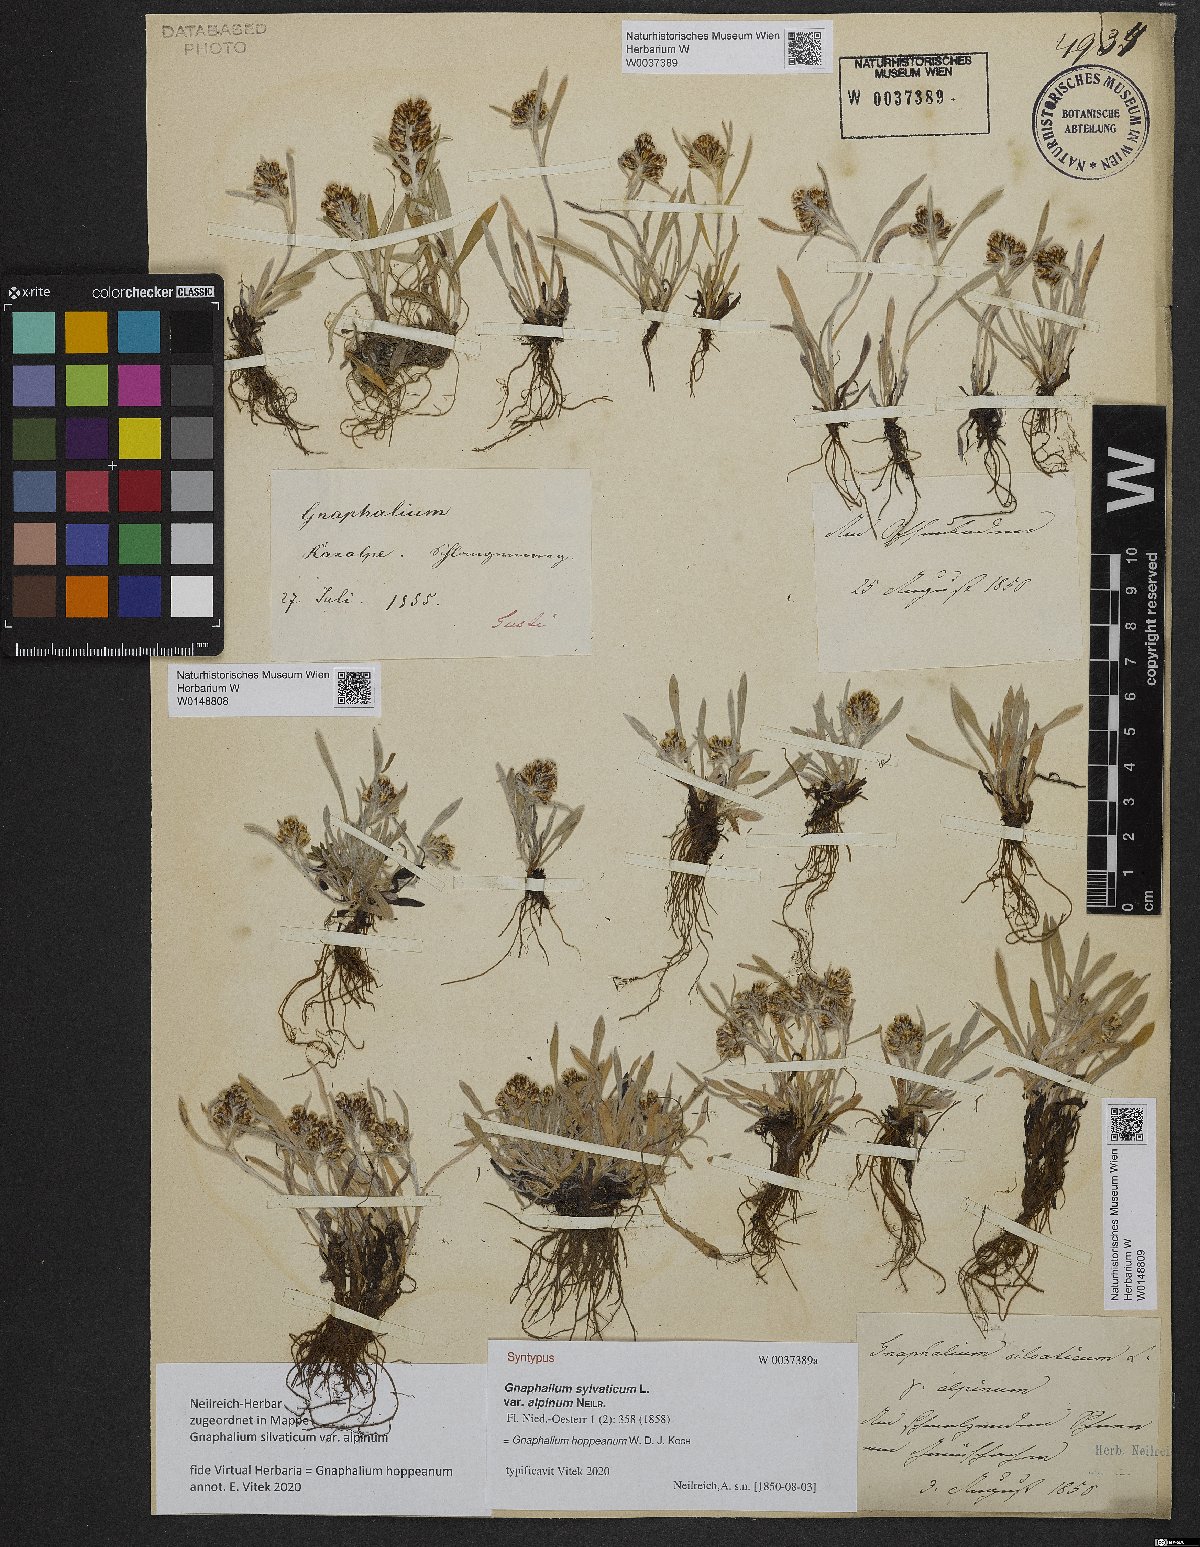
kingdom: Plantae
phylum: Tracheophyta
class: Magnoliopsida
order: Asterales
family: Asteraceae
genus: Gnaphalium
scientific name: Gnaphalium sylvaticum
